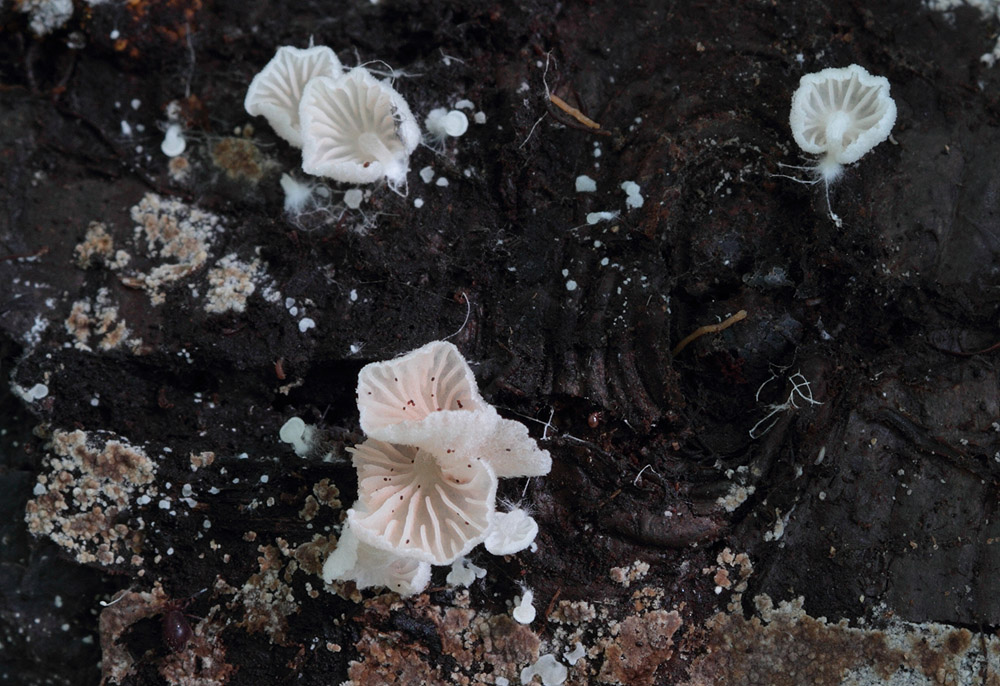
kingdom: Fungi
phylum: Basidiomycota
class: Agaricomycetes
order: Agaricales
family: Entolomataceae
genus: Entoloma
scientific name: Entoloma jahnii
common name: muslinge-rødblad
